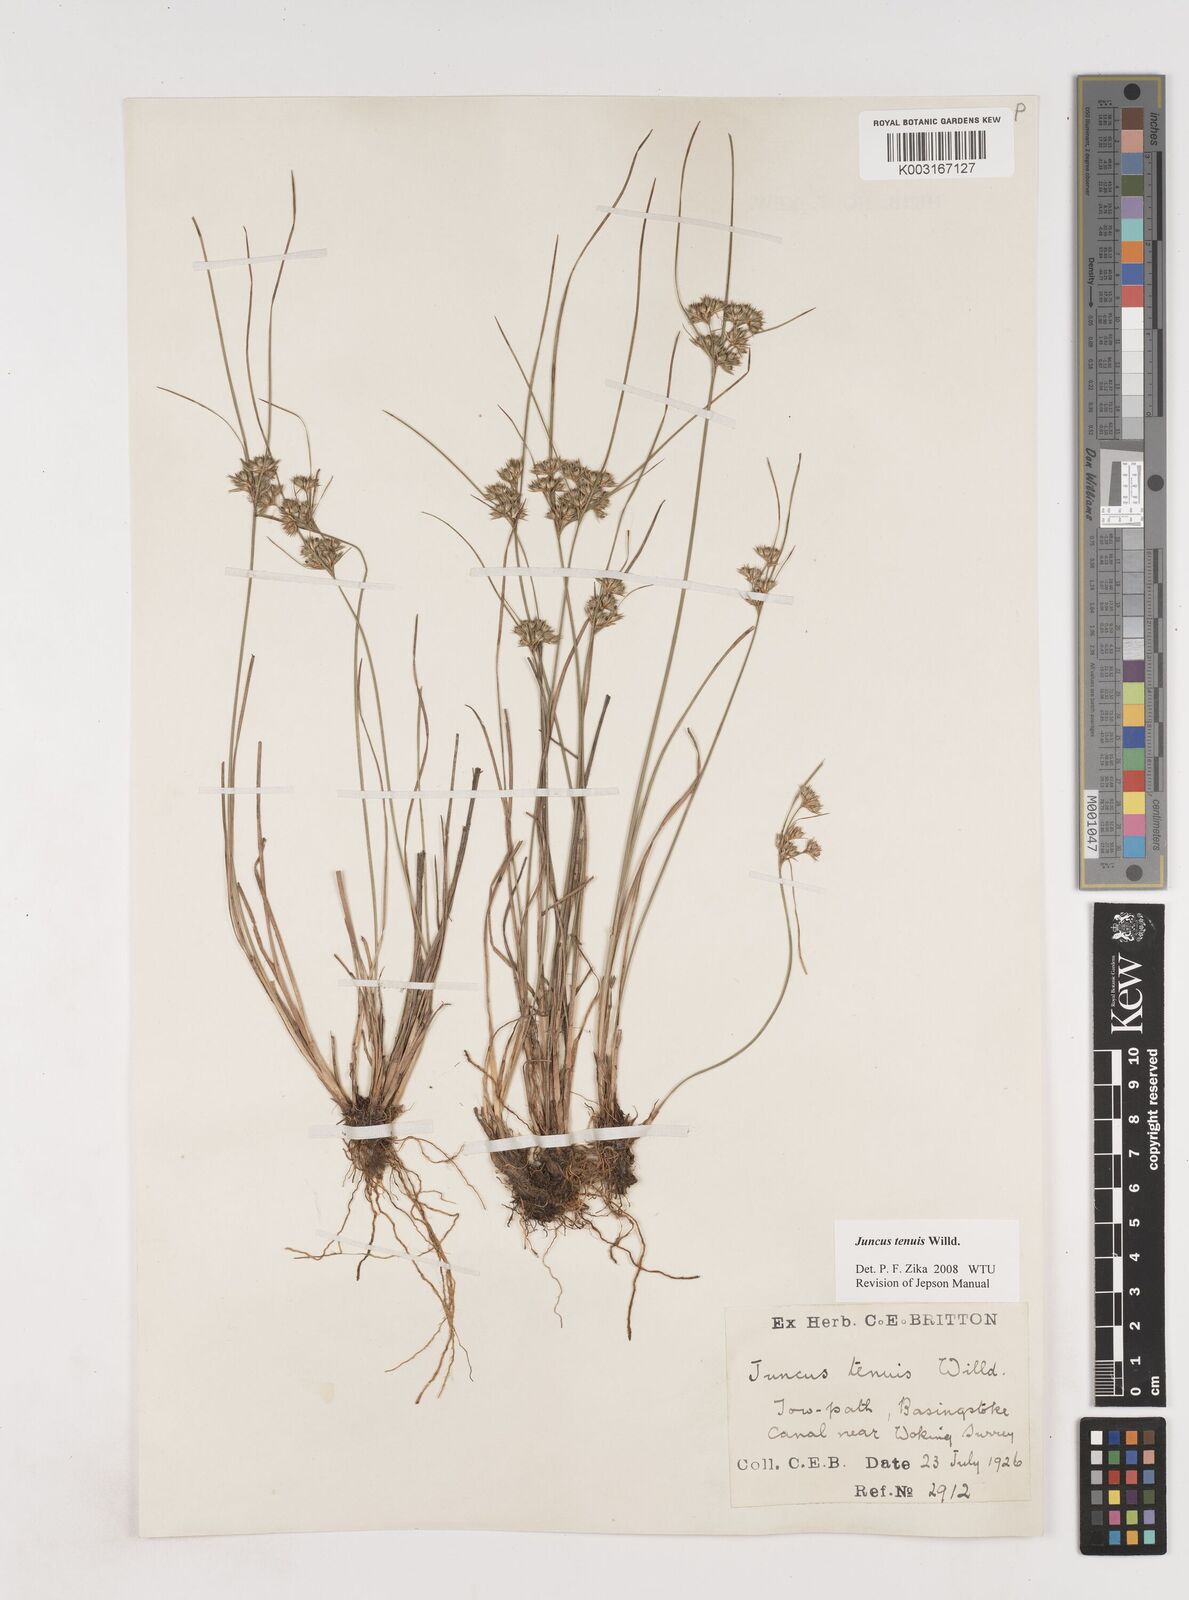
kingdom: Plantae
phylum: Tracheophyta
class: Liliopsida
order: Poales
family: Juncaceae
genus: Juncus
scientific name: Juncus tenuis
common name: Slender rush
